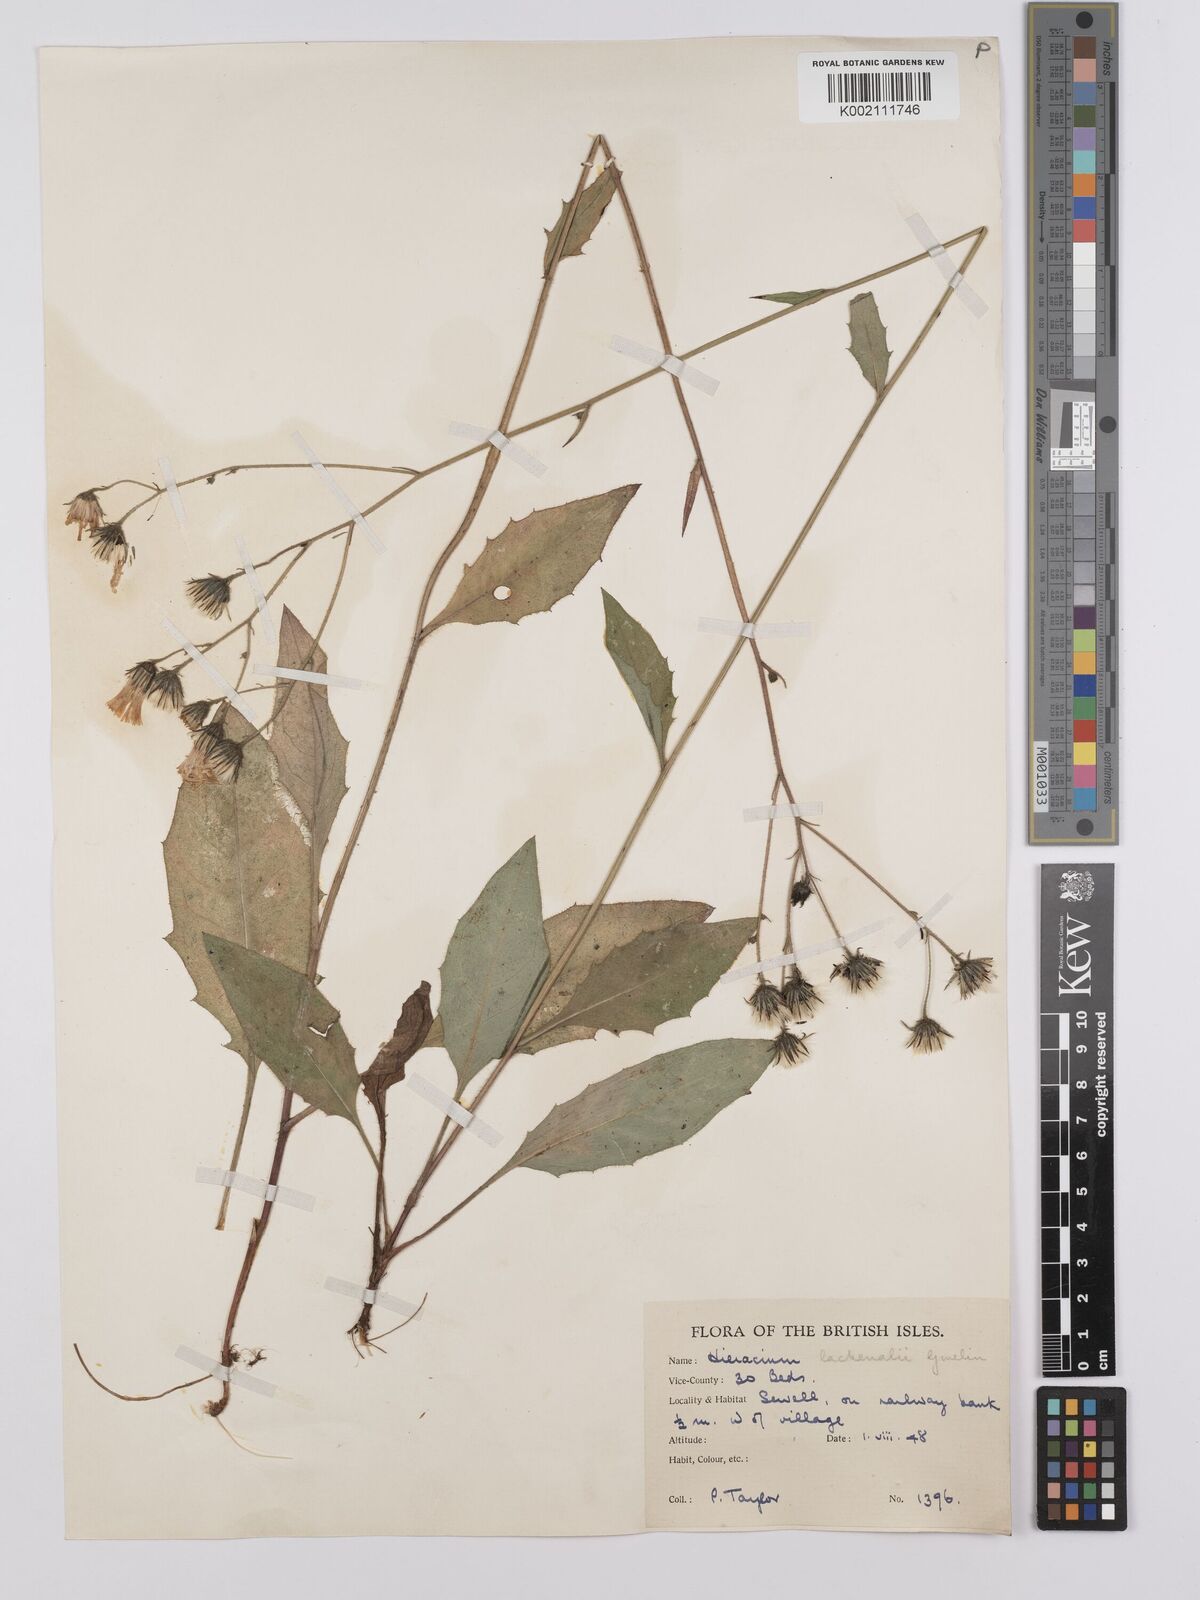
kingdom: Plantae
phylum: Tracheophyta
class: Magnoliopsida
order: Asterales
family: Asteraceae
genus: Hieracium
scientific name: Hieracium lachenalii
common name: Common hawkweed
